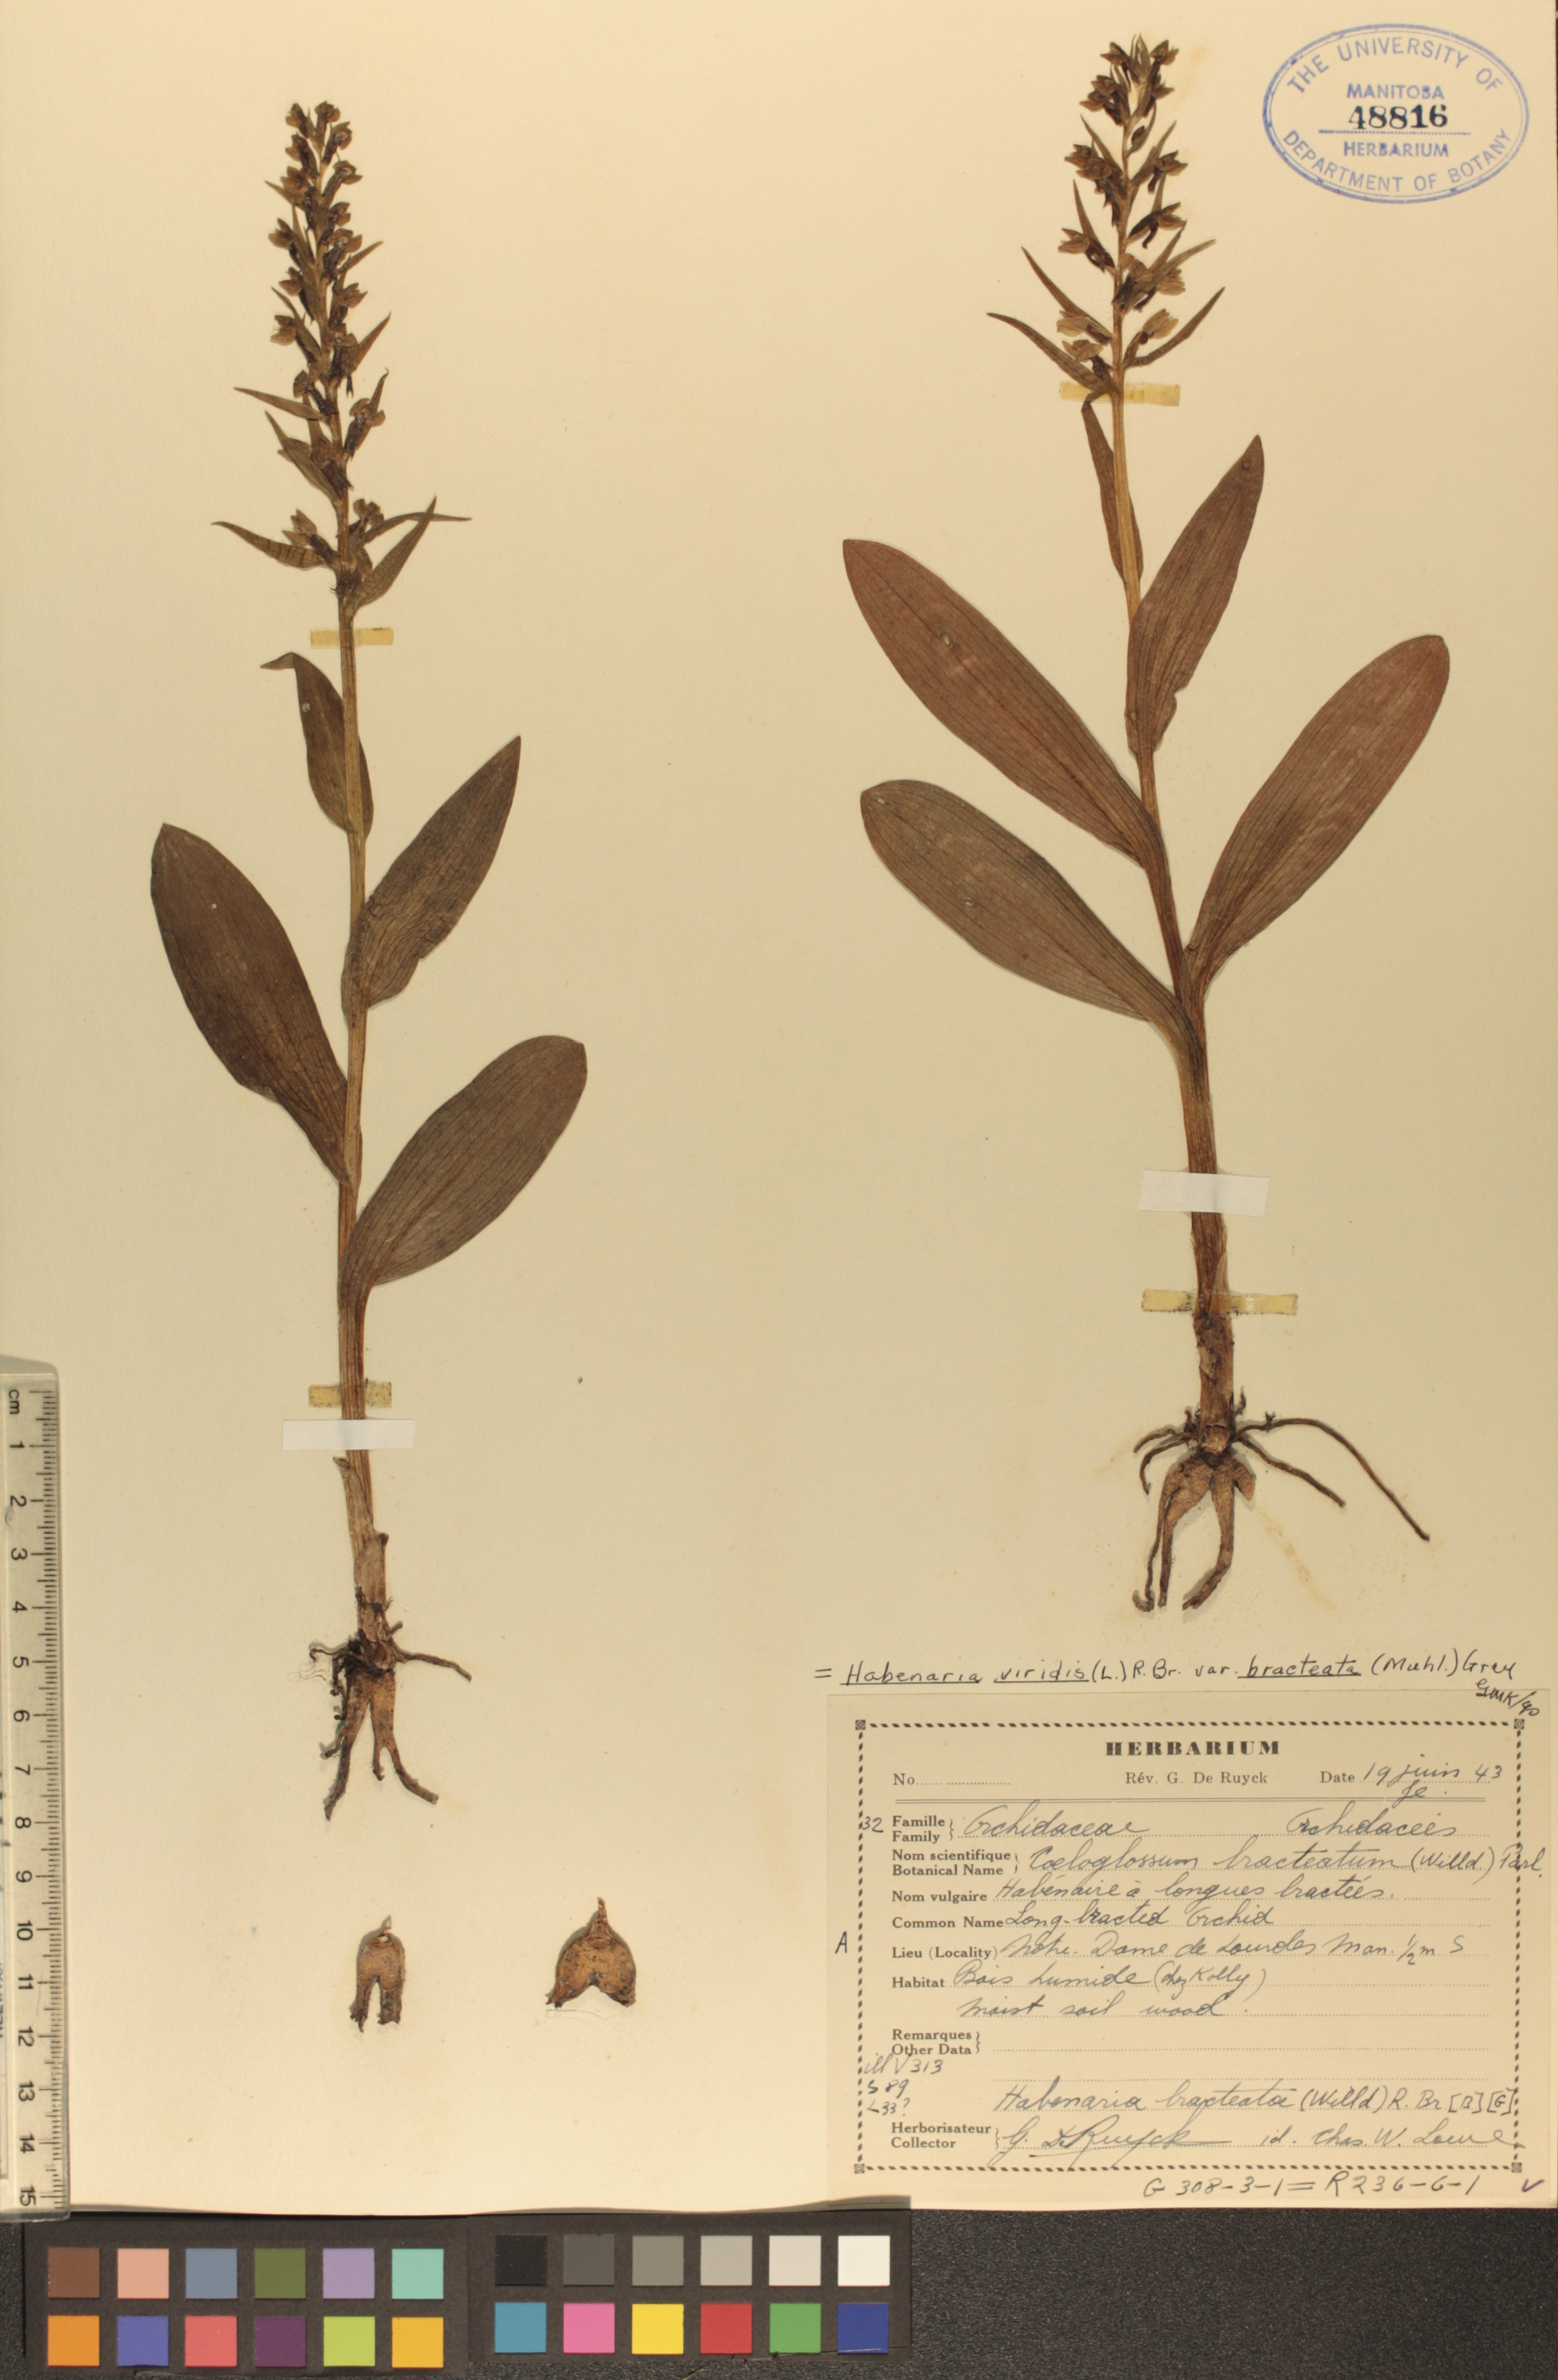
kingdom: Plantae
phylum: Tracheophyta
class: Liliopsida
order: Asparagales
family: Orchidaceae
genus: Dactylorhiza
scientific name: Dactylorhiza viridis
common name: Longbract frog orchid
